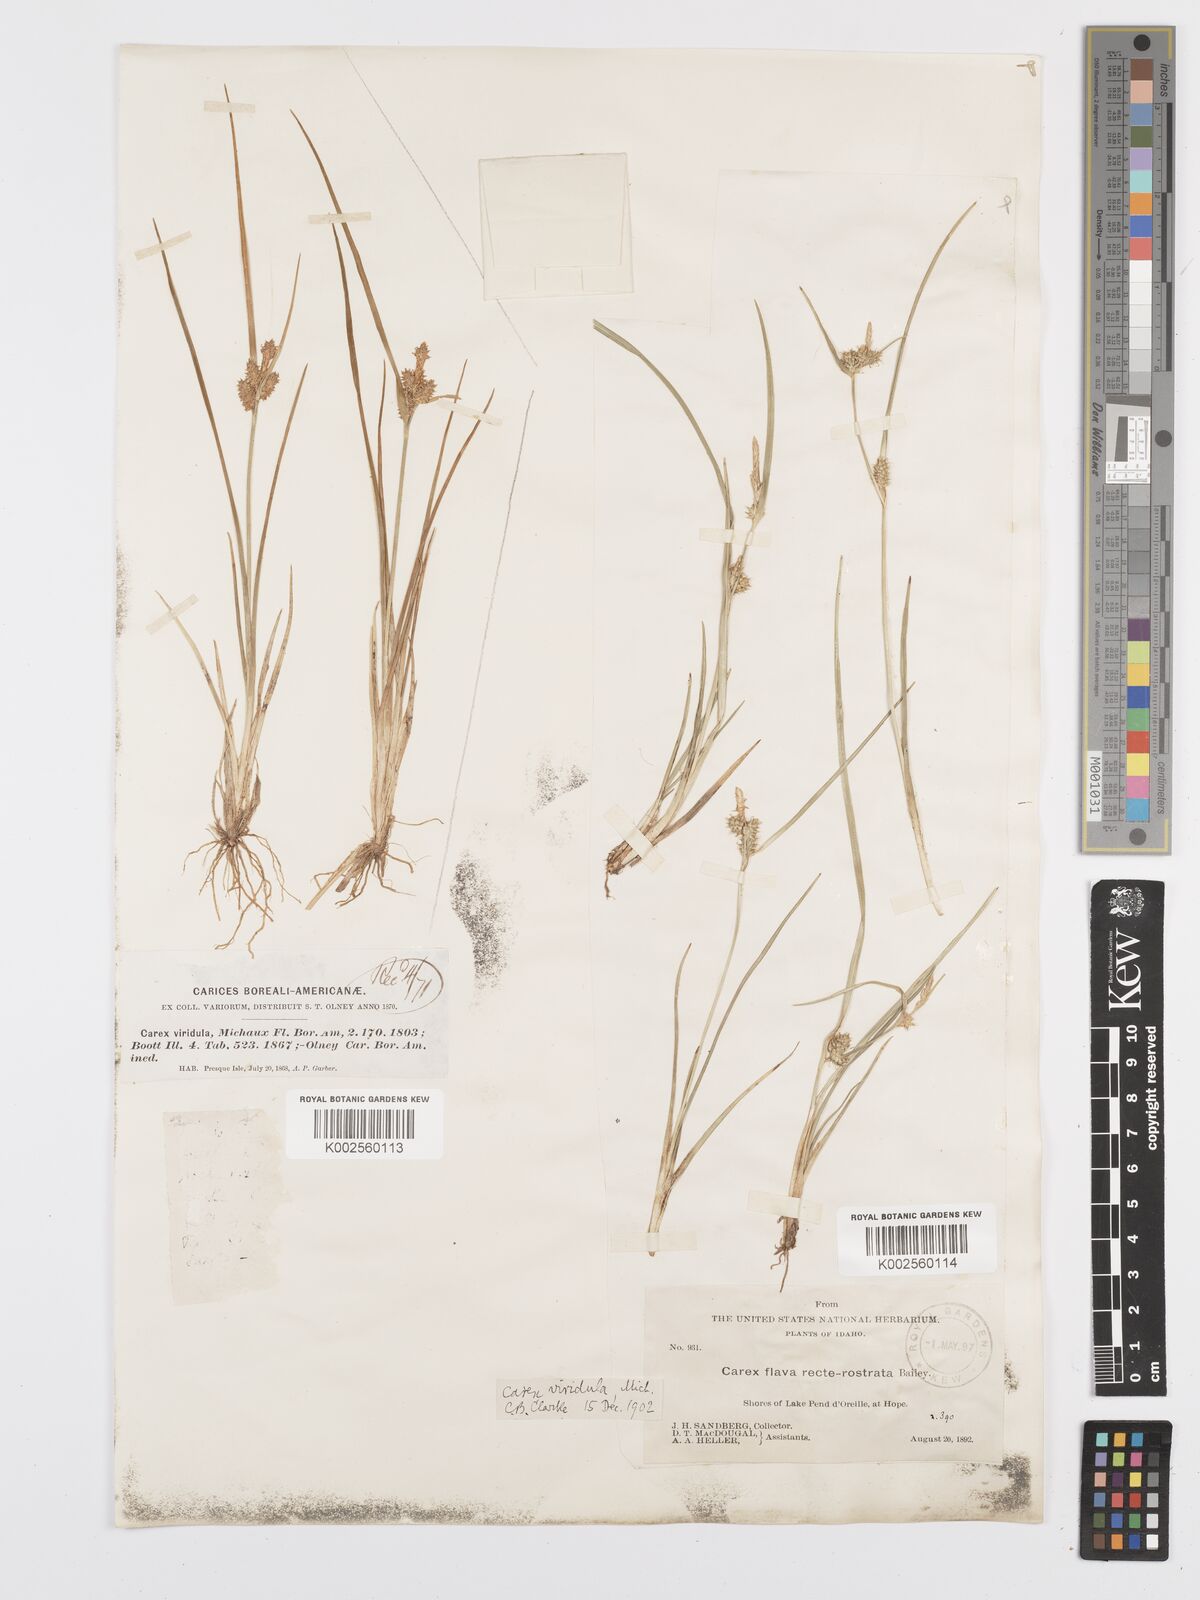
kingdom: Plantae
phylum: Tracheophyta
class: Liliopsida
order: Poales
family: Cyperaceae
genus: Carex
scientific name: Carex oederi
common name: Common & small-fruited yellow-sedge
